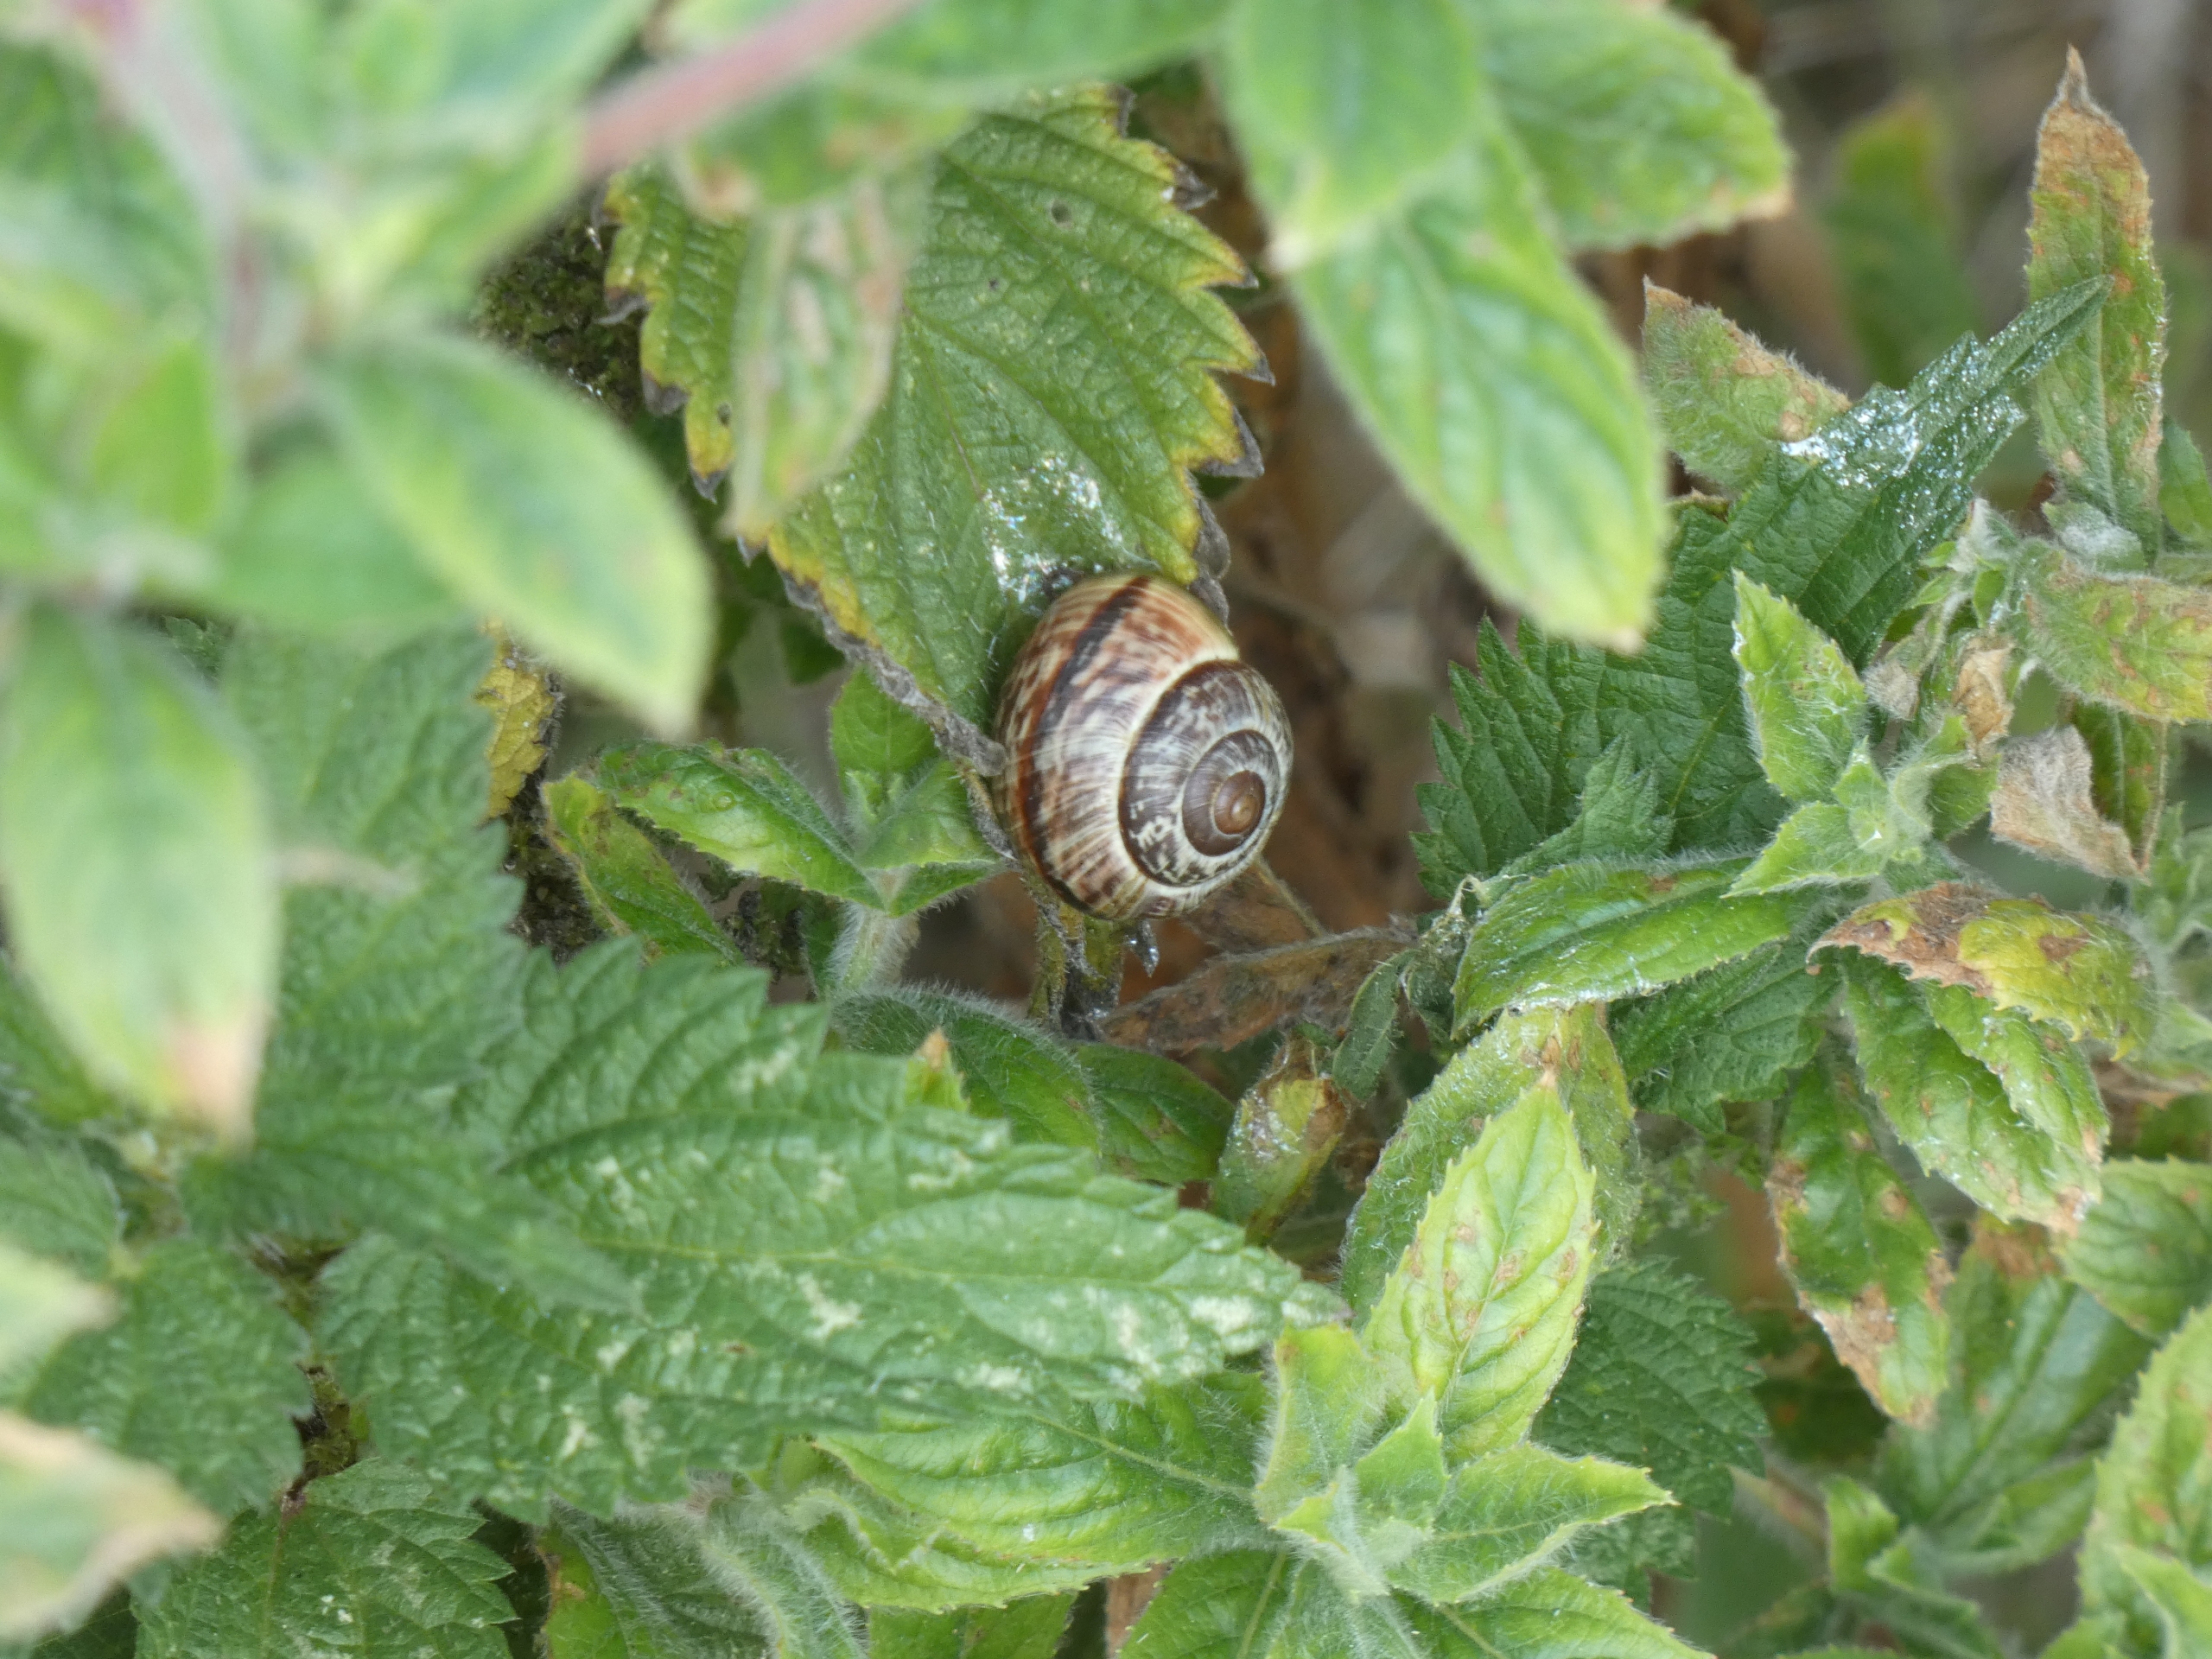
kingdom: Animalia
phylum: Mollusca
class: Gastropoda
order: Stylommatophora
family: Helicidae
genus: Arianta
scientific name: Arianta arbustorum
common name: Kratsnegl
